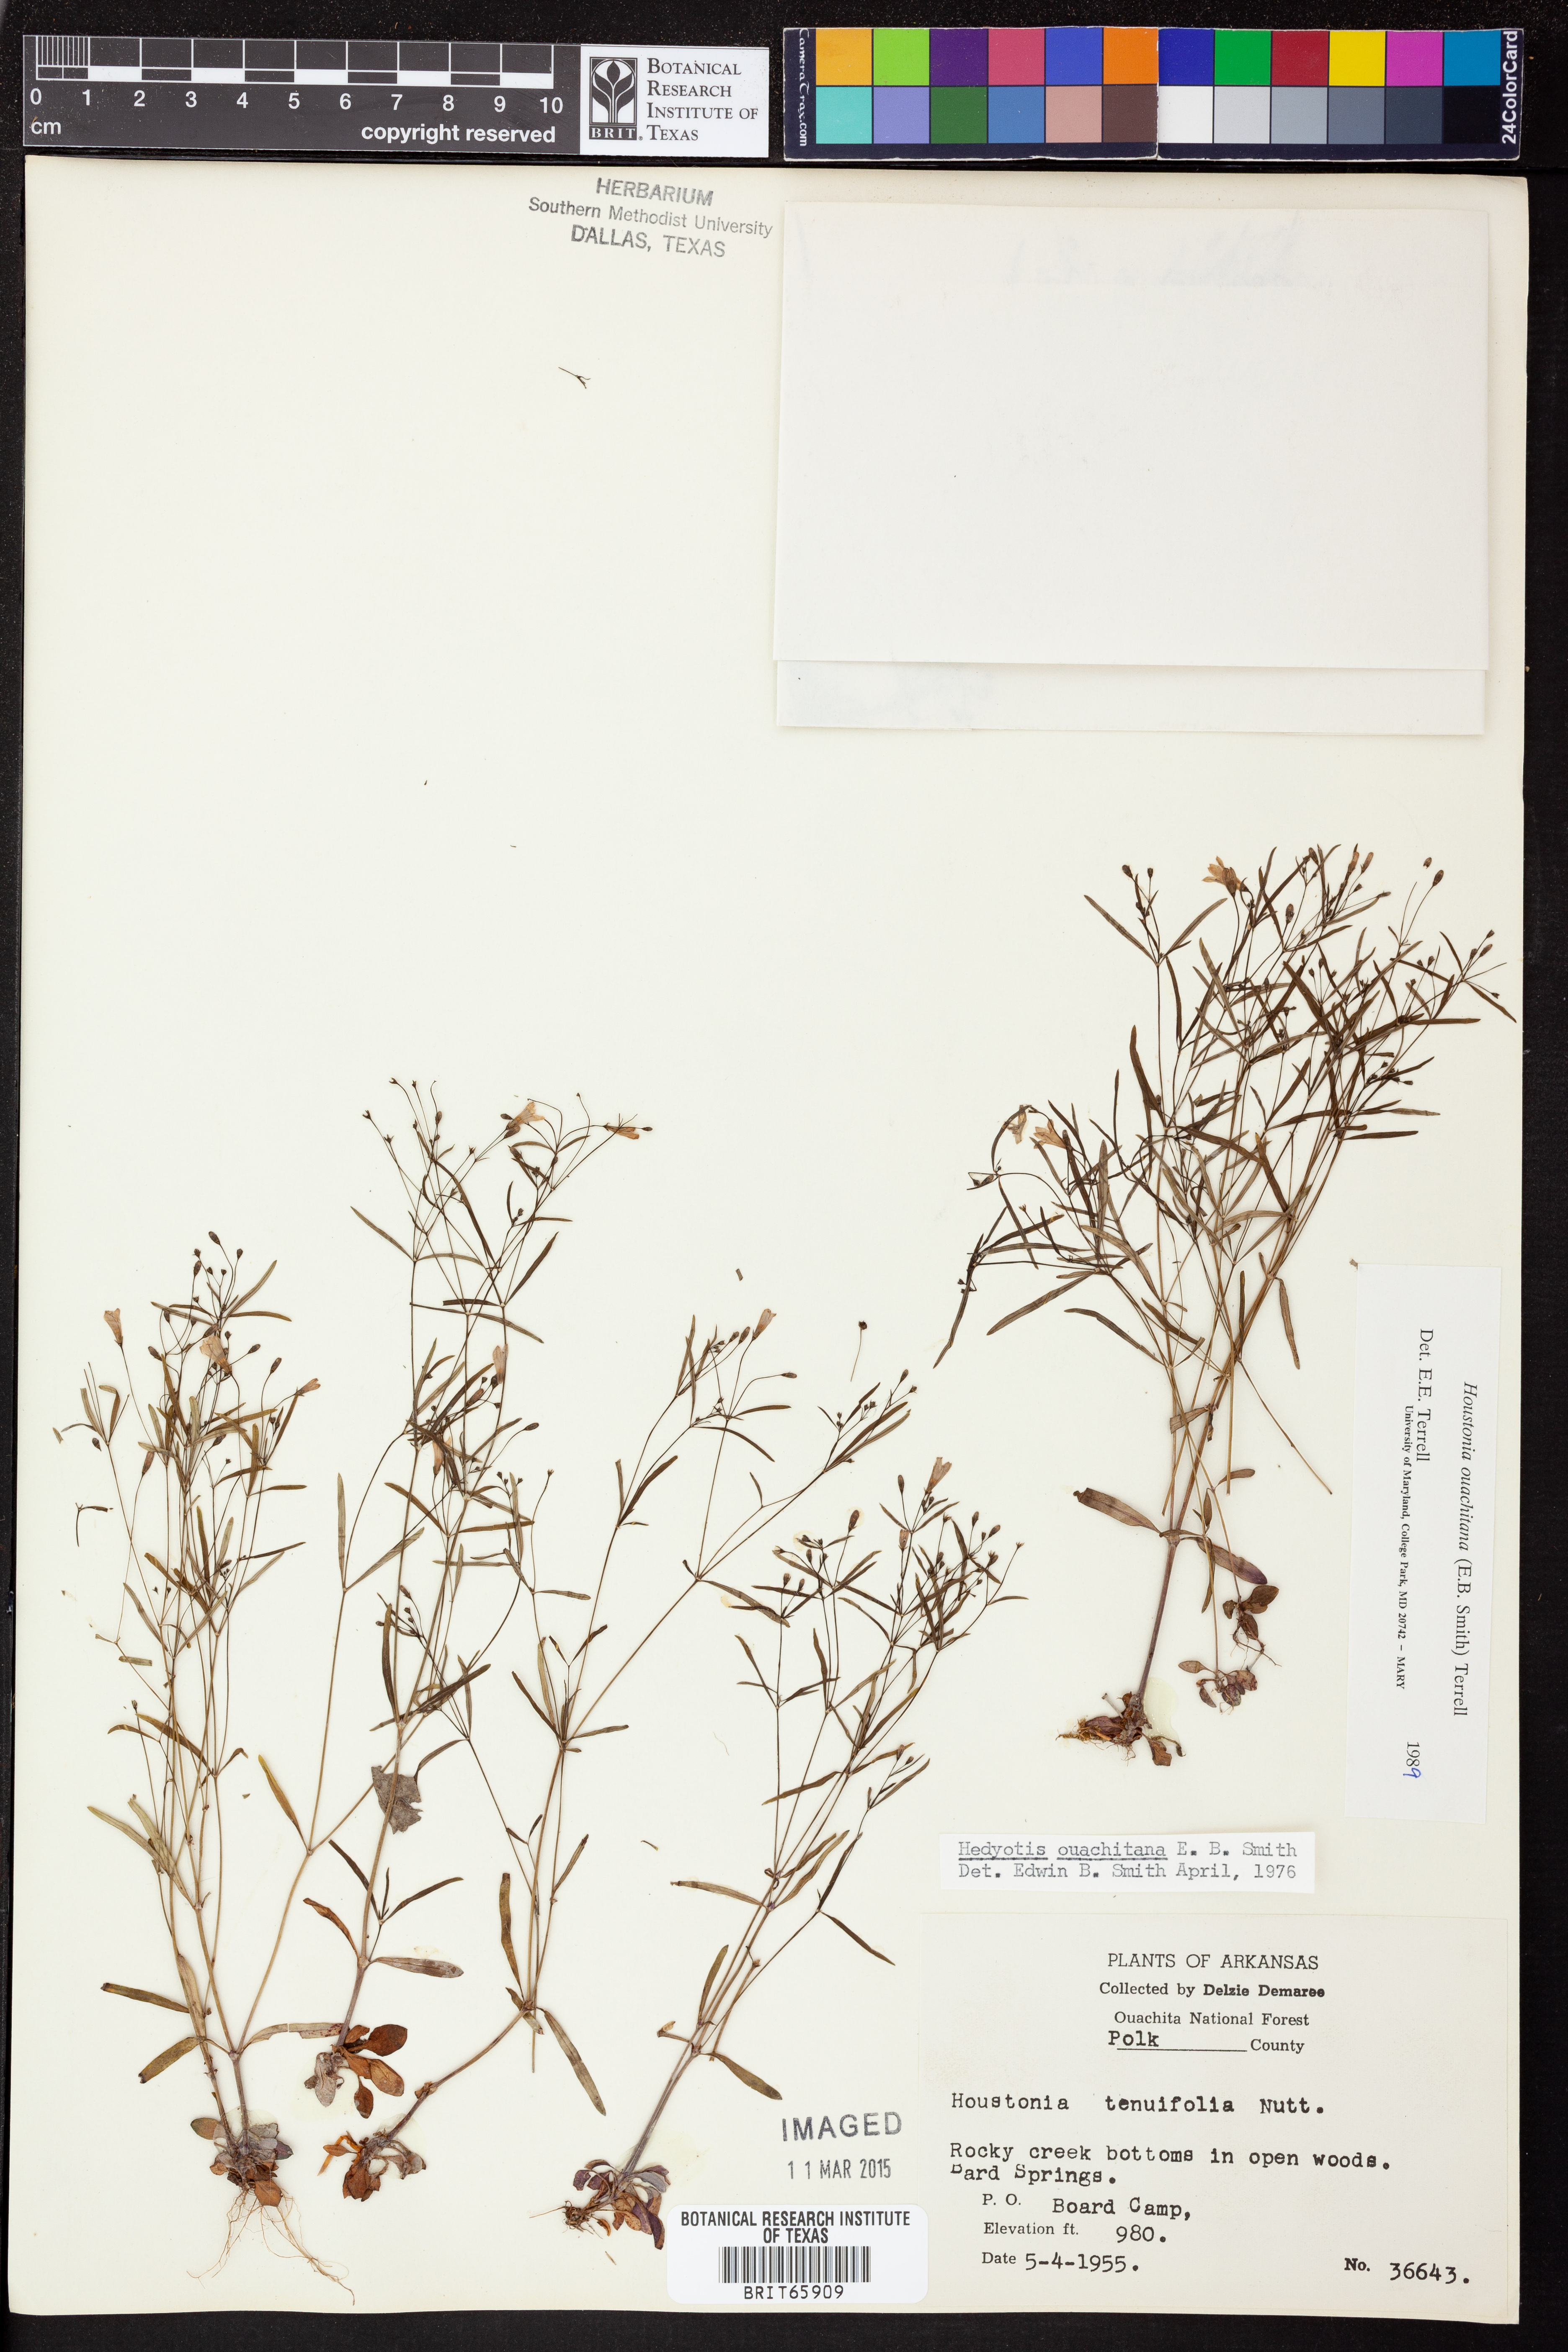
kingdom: Plantae
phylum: Tracheophyta
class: Magnoliopsida
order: Gentianales
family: Rubiaceae
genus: Houstonia
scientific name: Houstonia ouachitana
